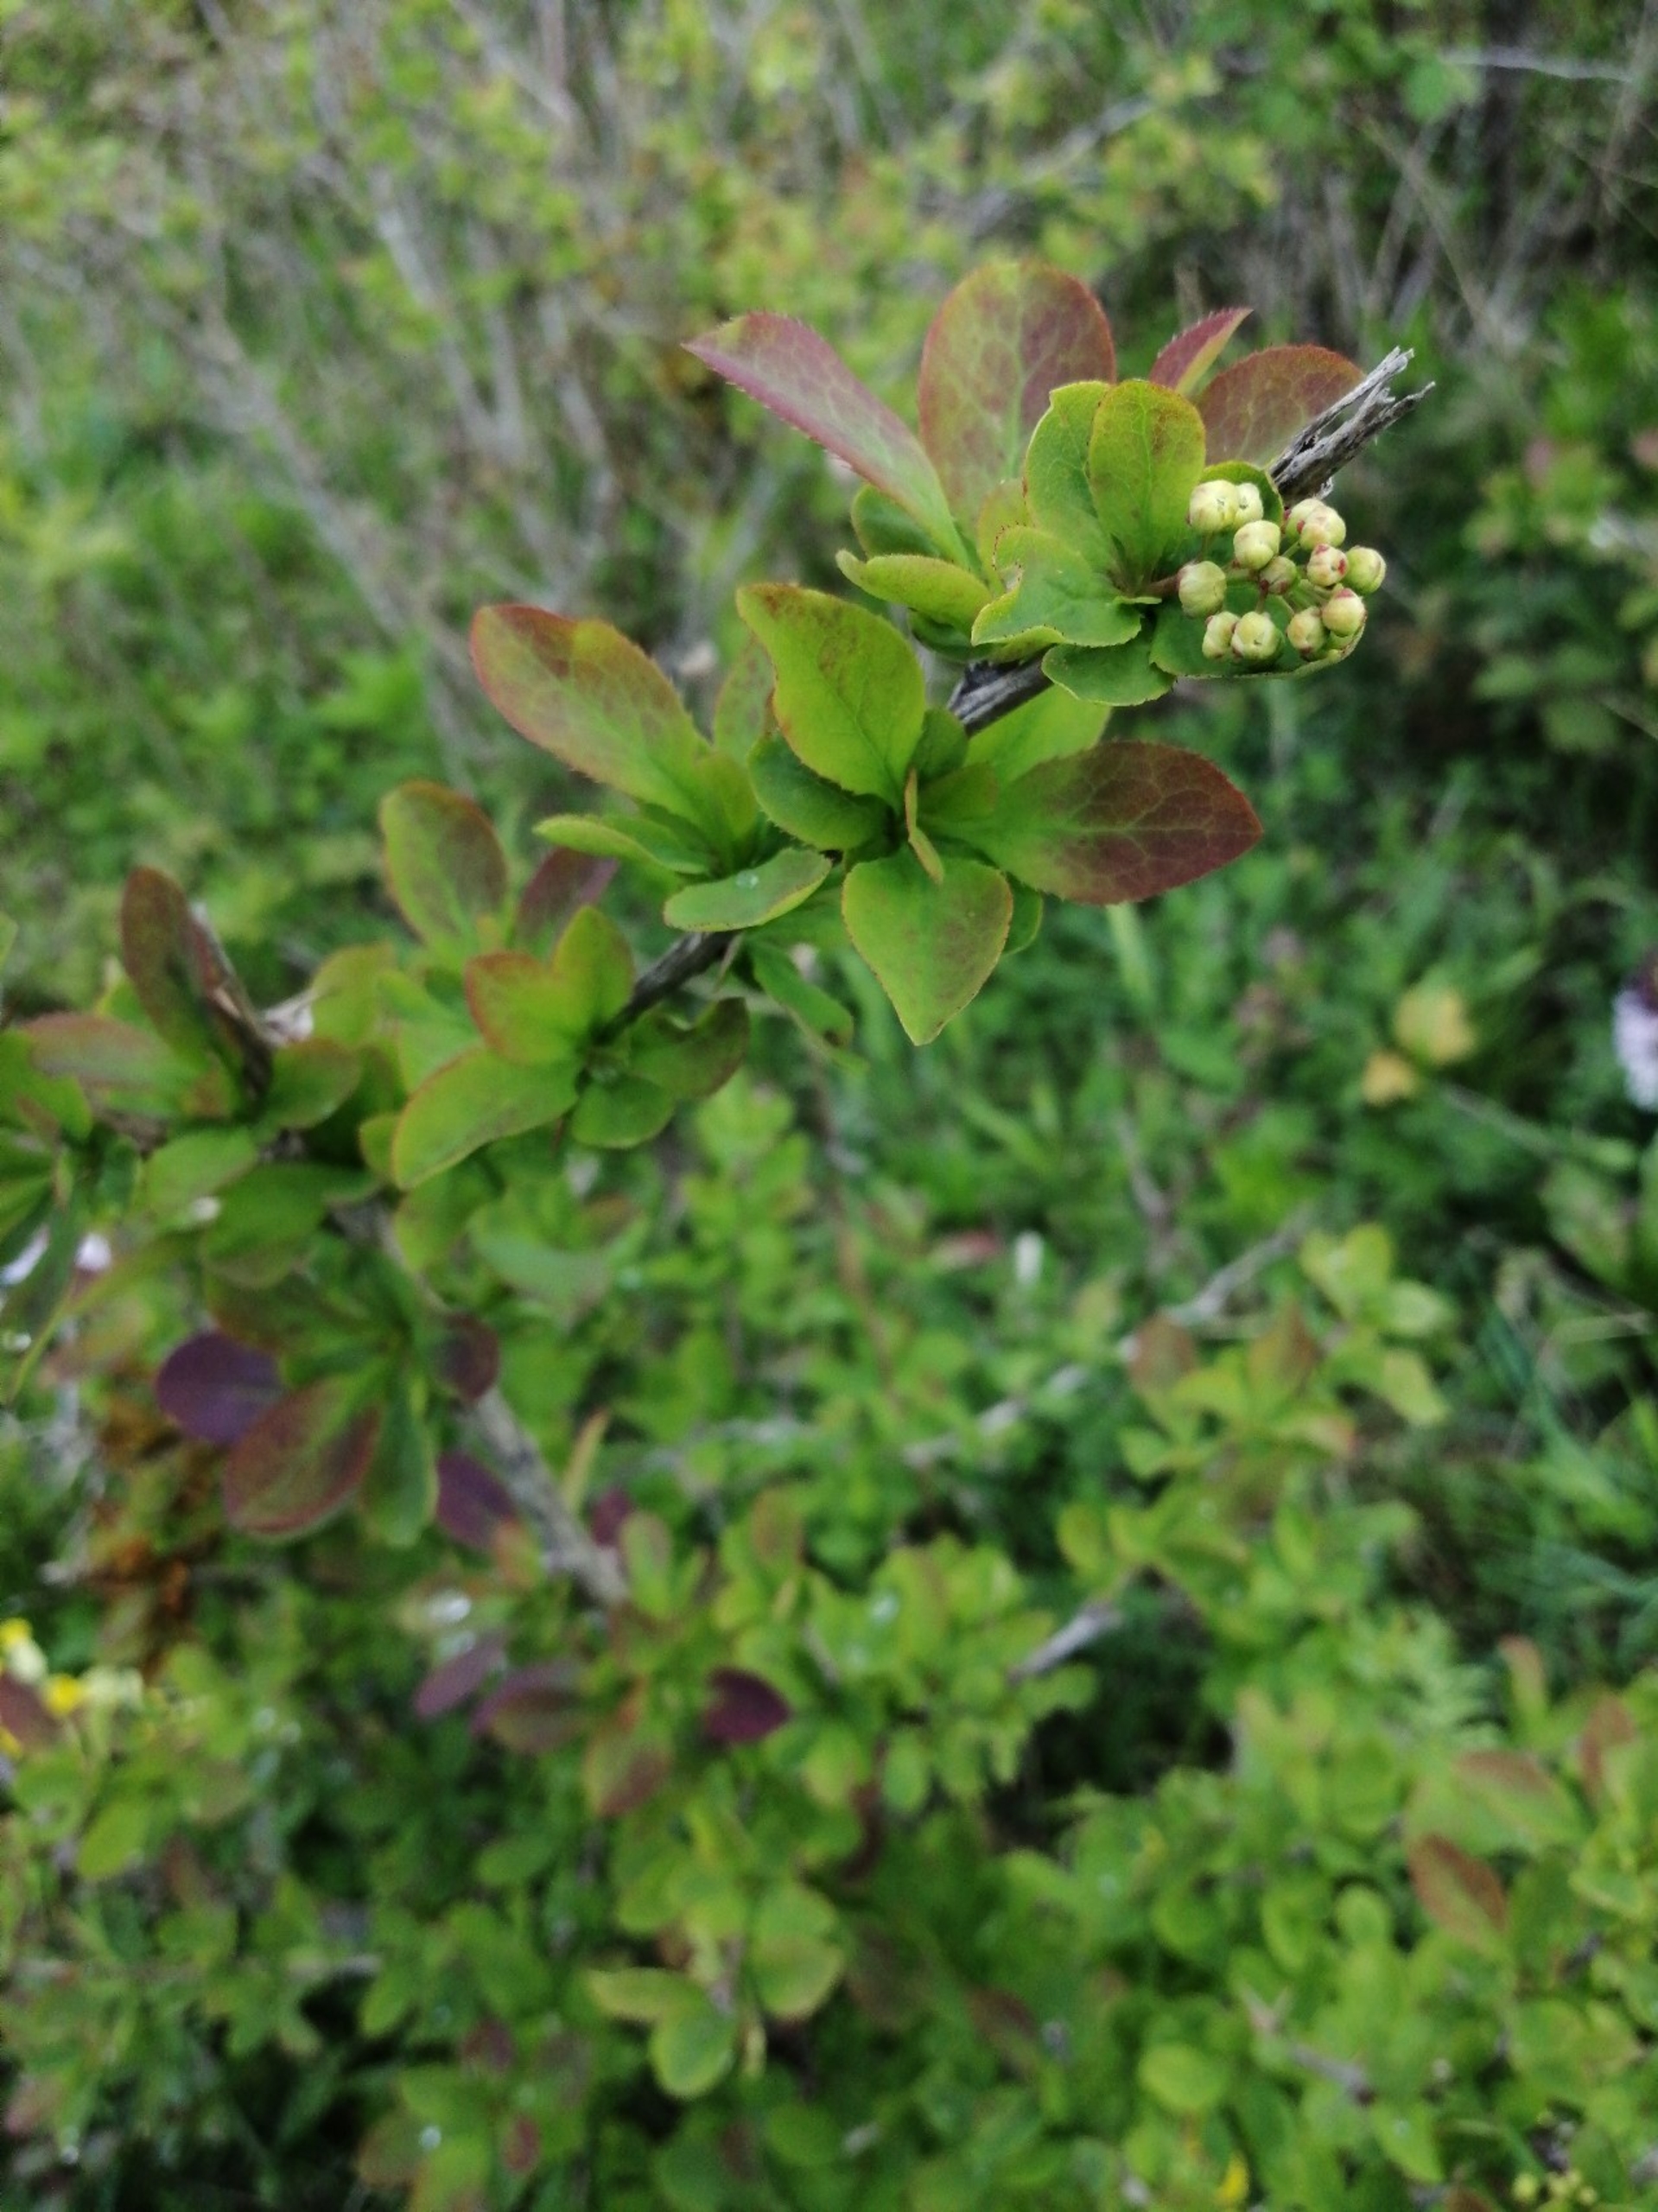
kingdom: Plantae
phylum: Tracheophyta
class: Magnoliopsida
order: Ranunculales
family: Berberidaceae
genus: Berberis
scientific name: Berberis vulgaris
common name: Almindelig berberis
